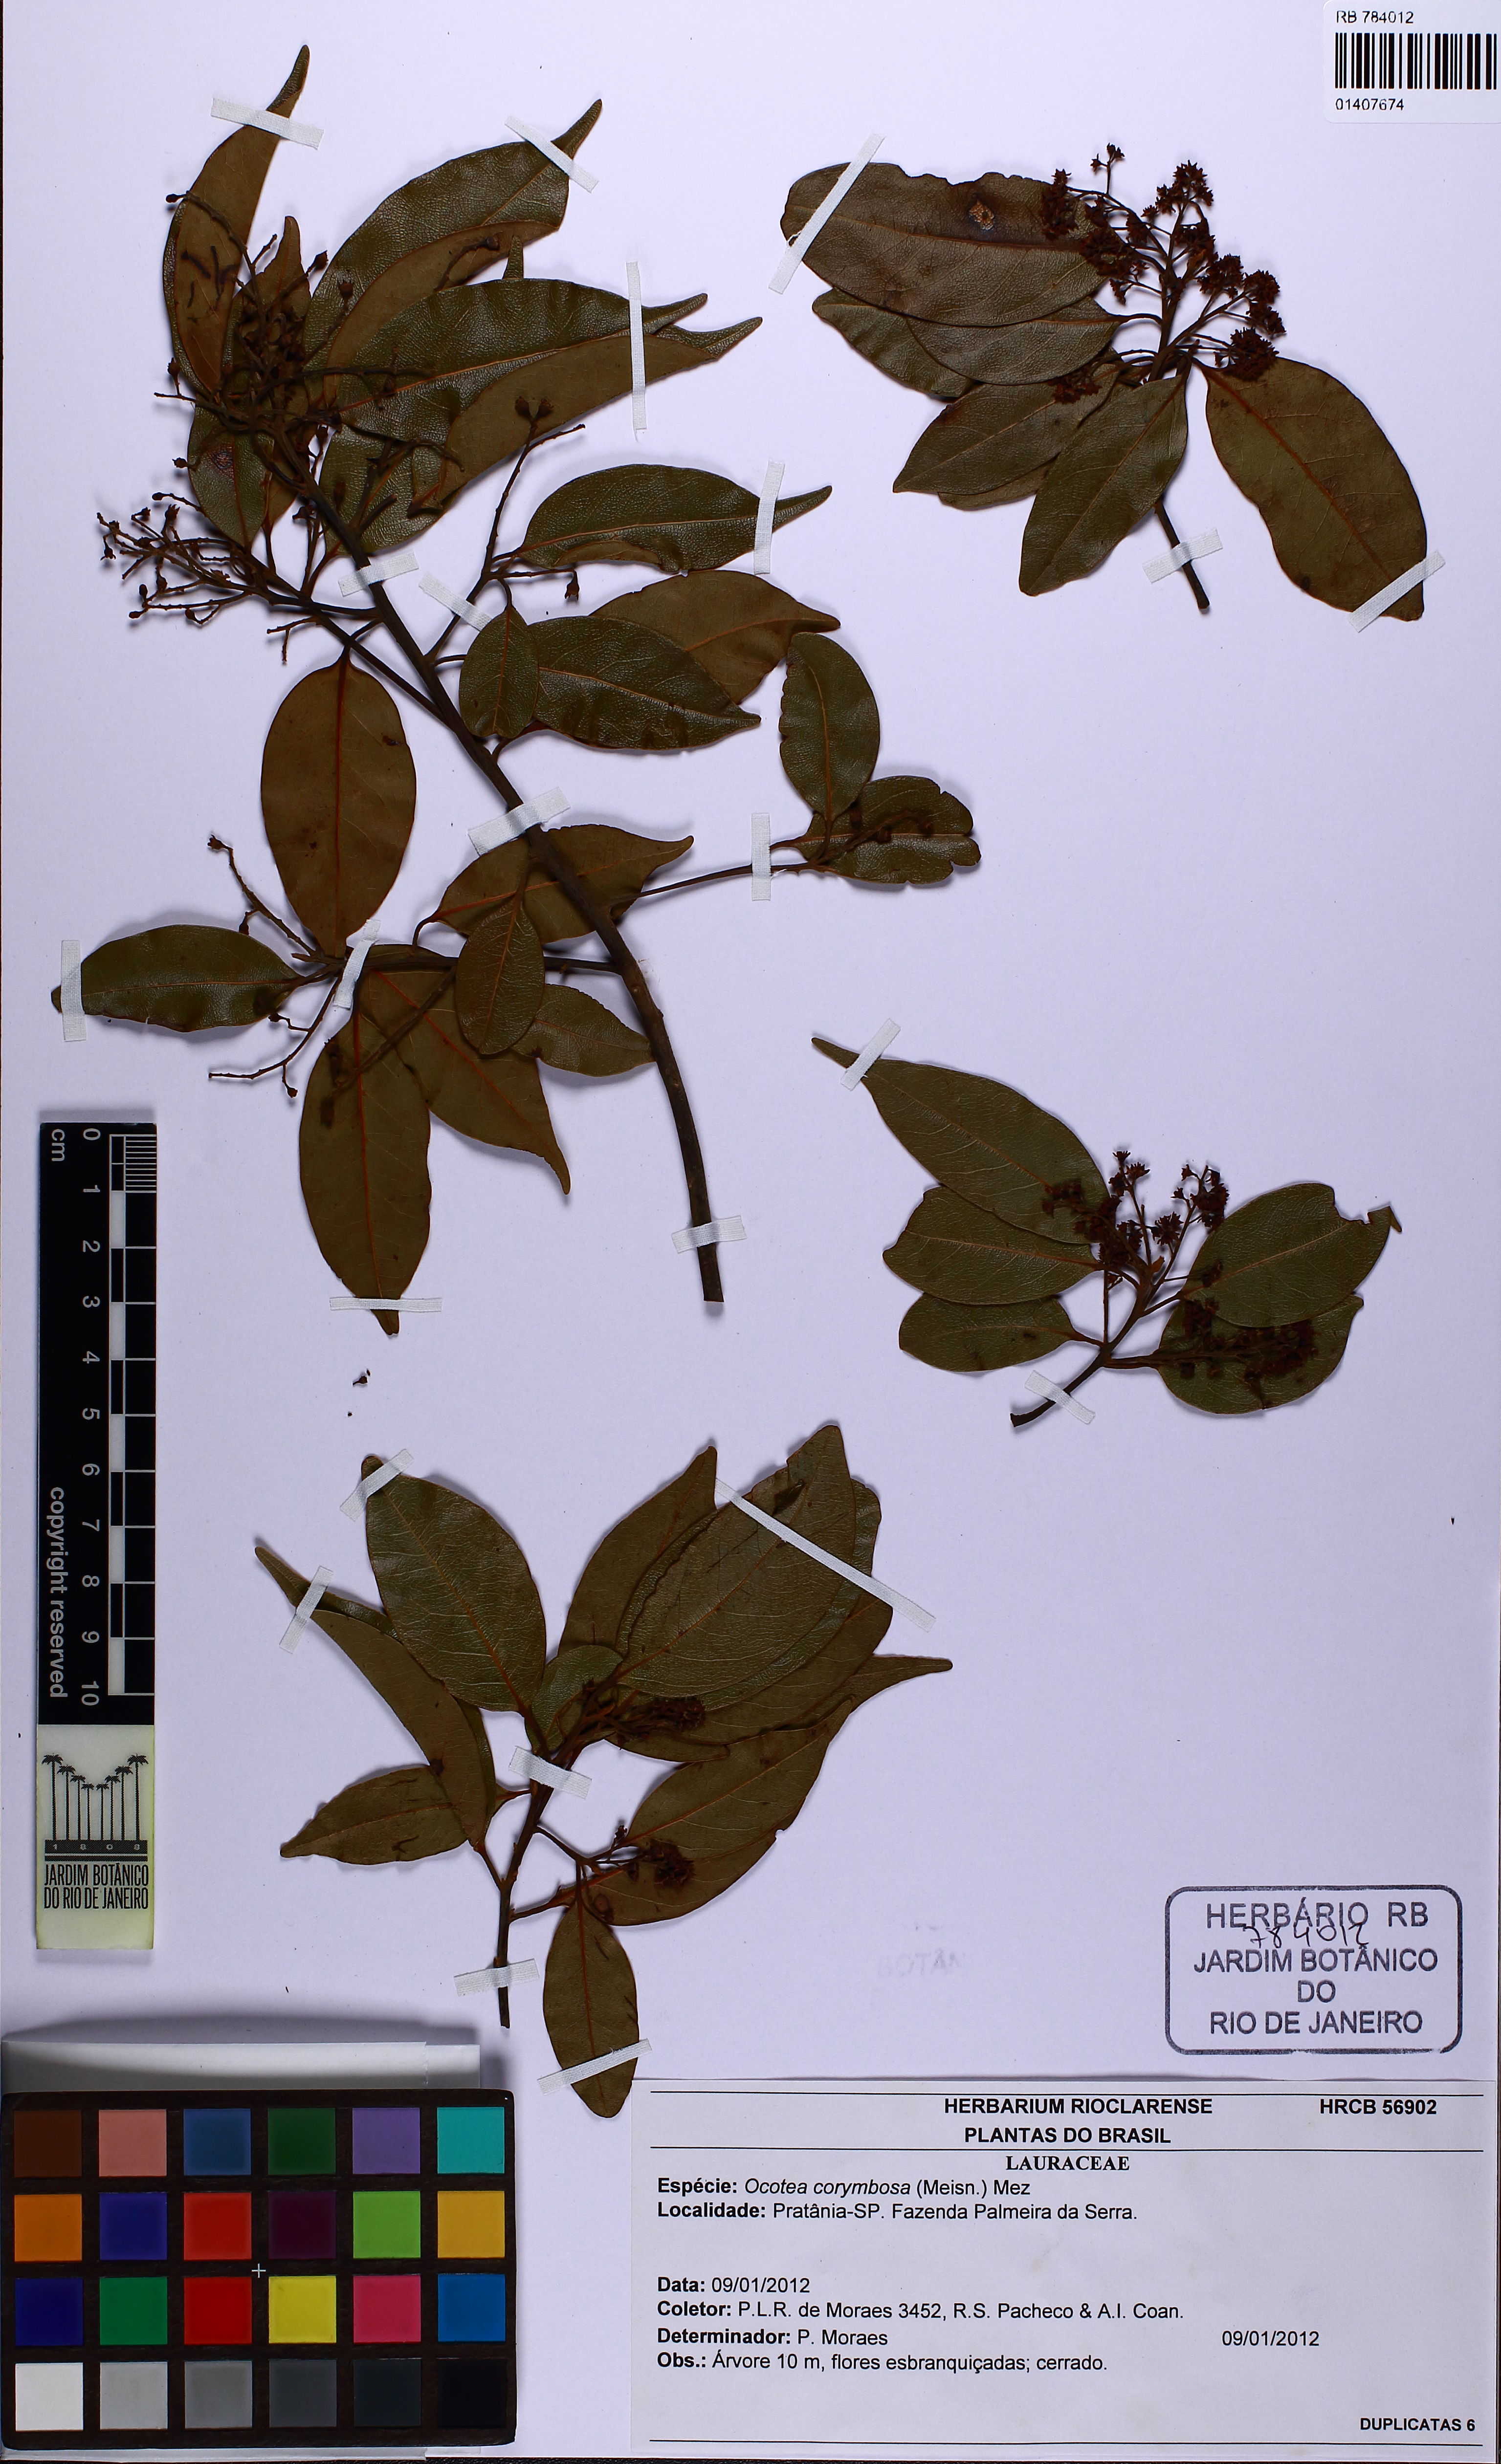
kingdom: Plantae
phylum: Tracheophyta
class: Magnoliopsida
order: Laurales
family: Lauraceae
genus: Mespilodaphne
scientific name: Mespilodaphne corymbosa
